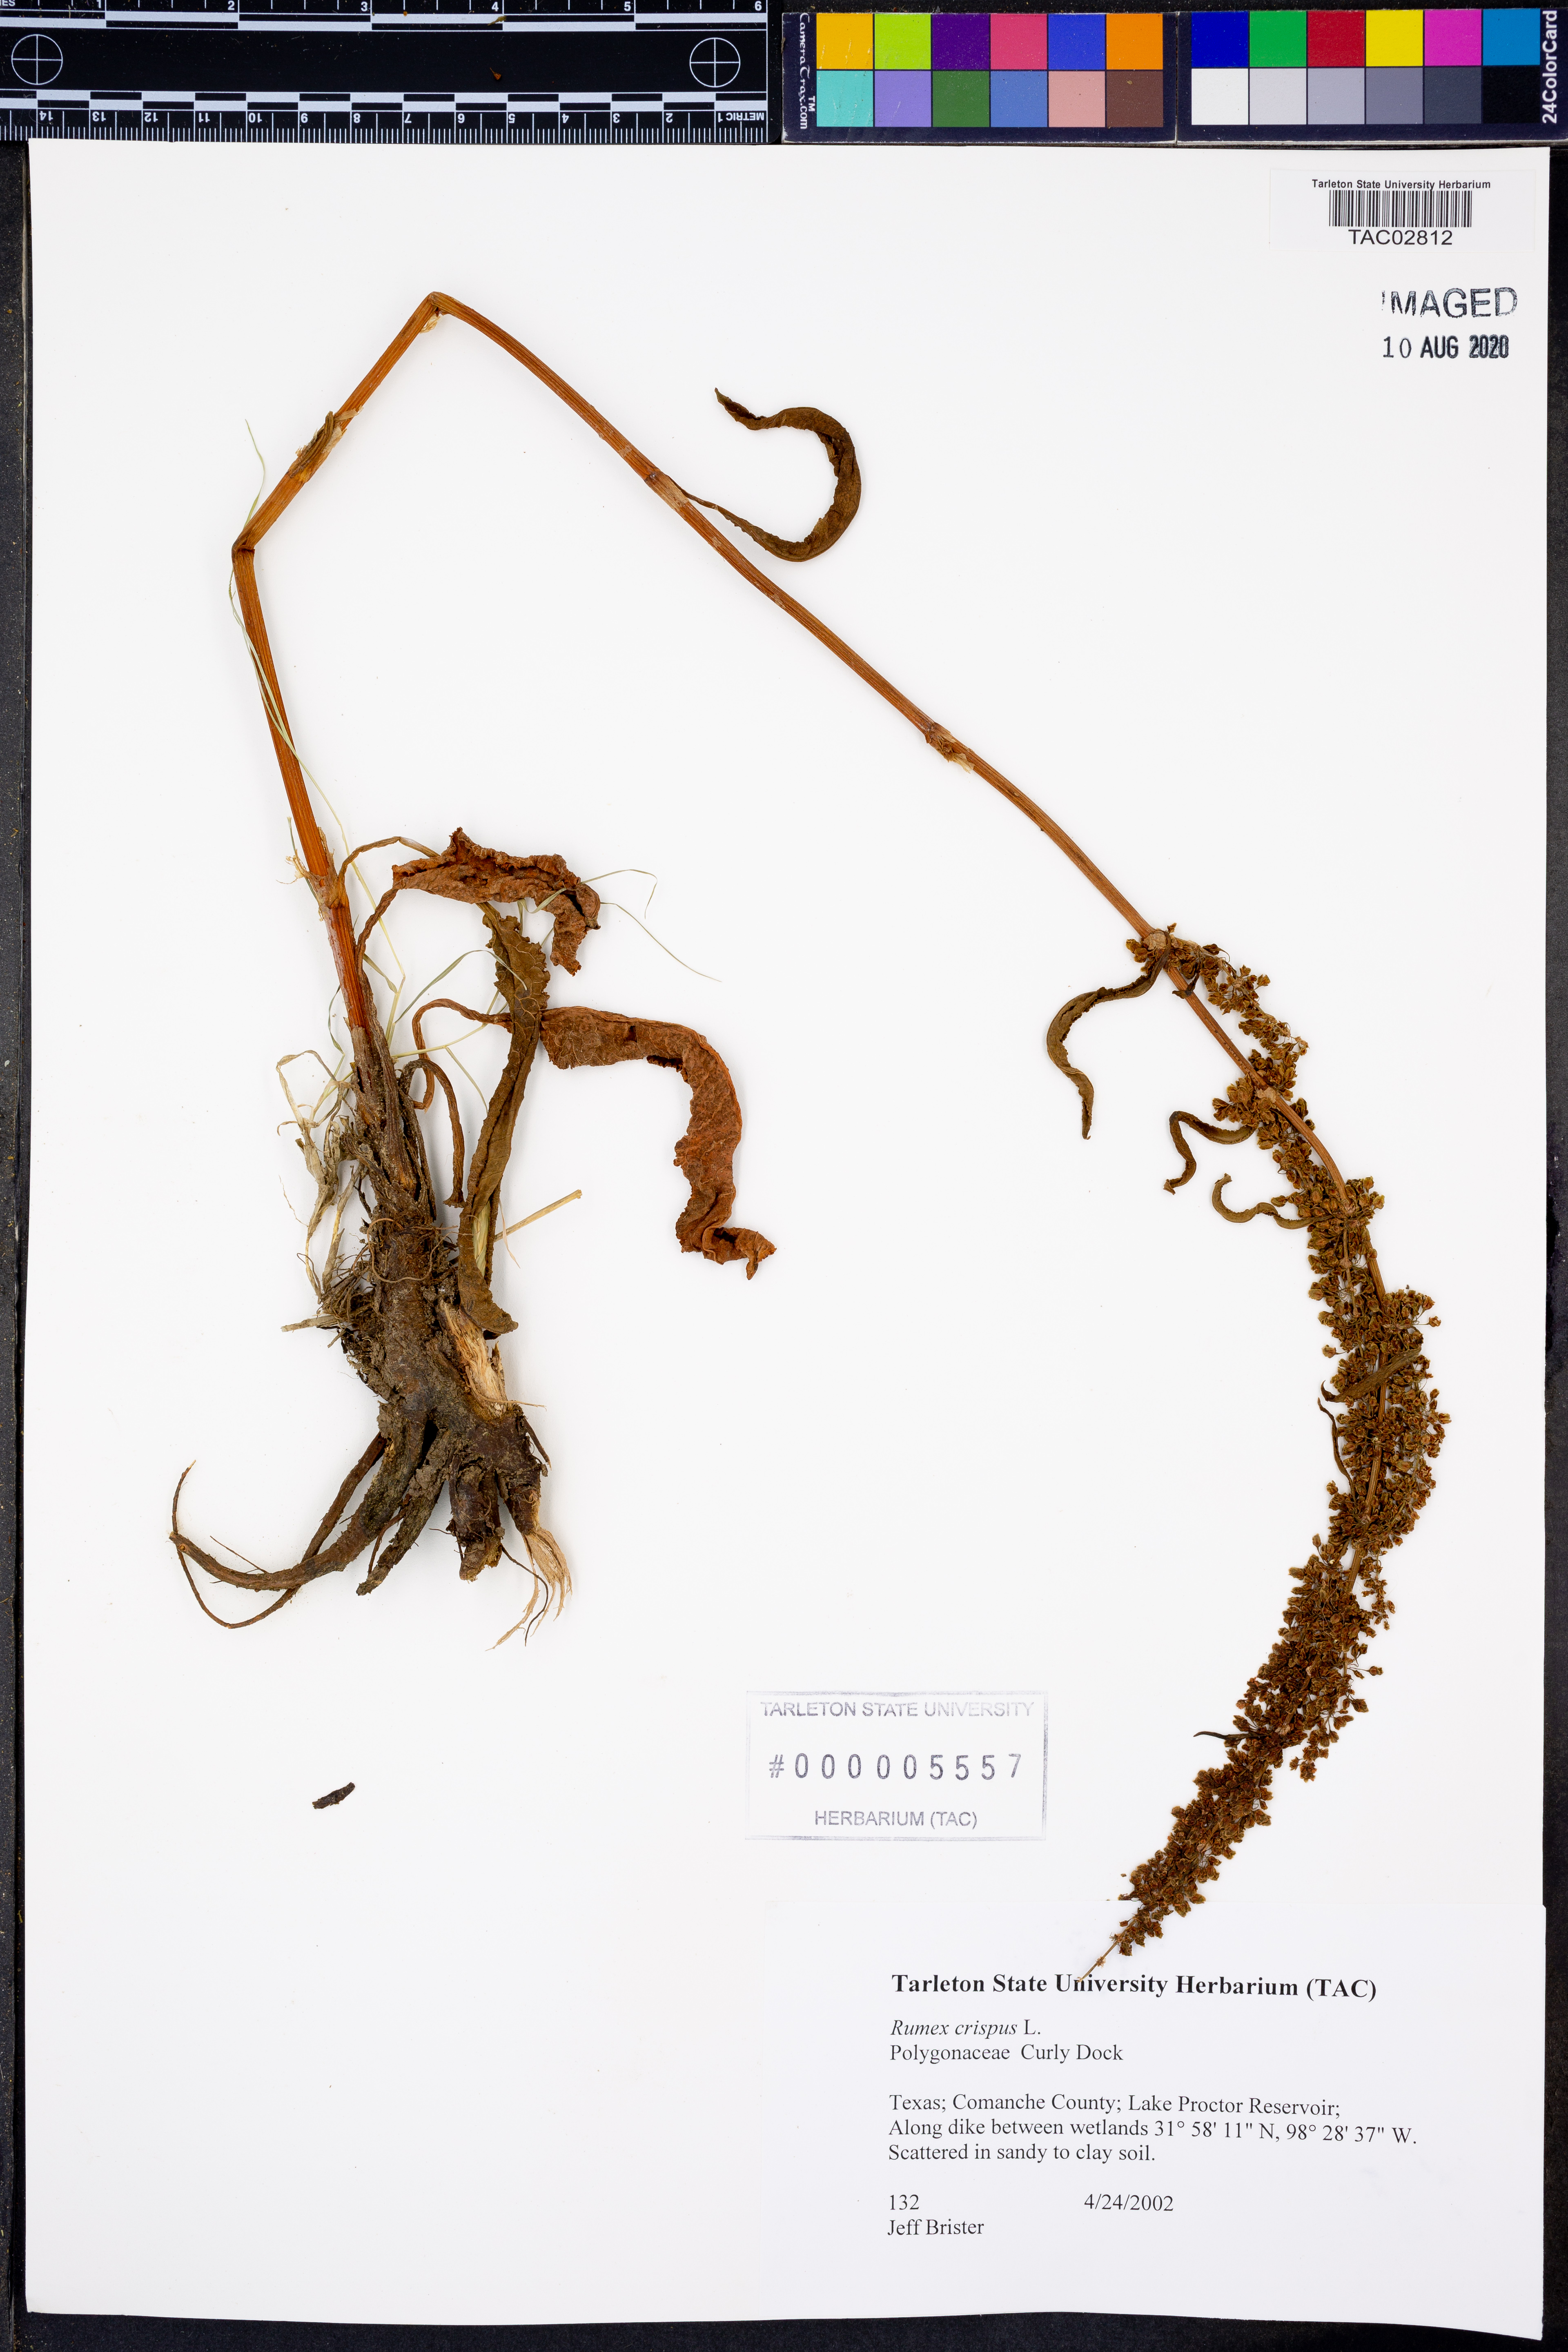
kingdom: Plantae
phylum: Tracheophyta
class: Magnoliopsida
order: Caryophyllales
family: Polygonaceae
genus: Rumex
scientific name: Rumex crispus
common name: Curled dock
